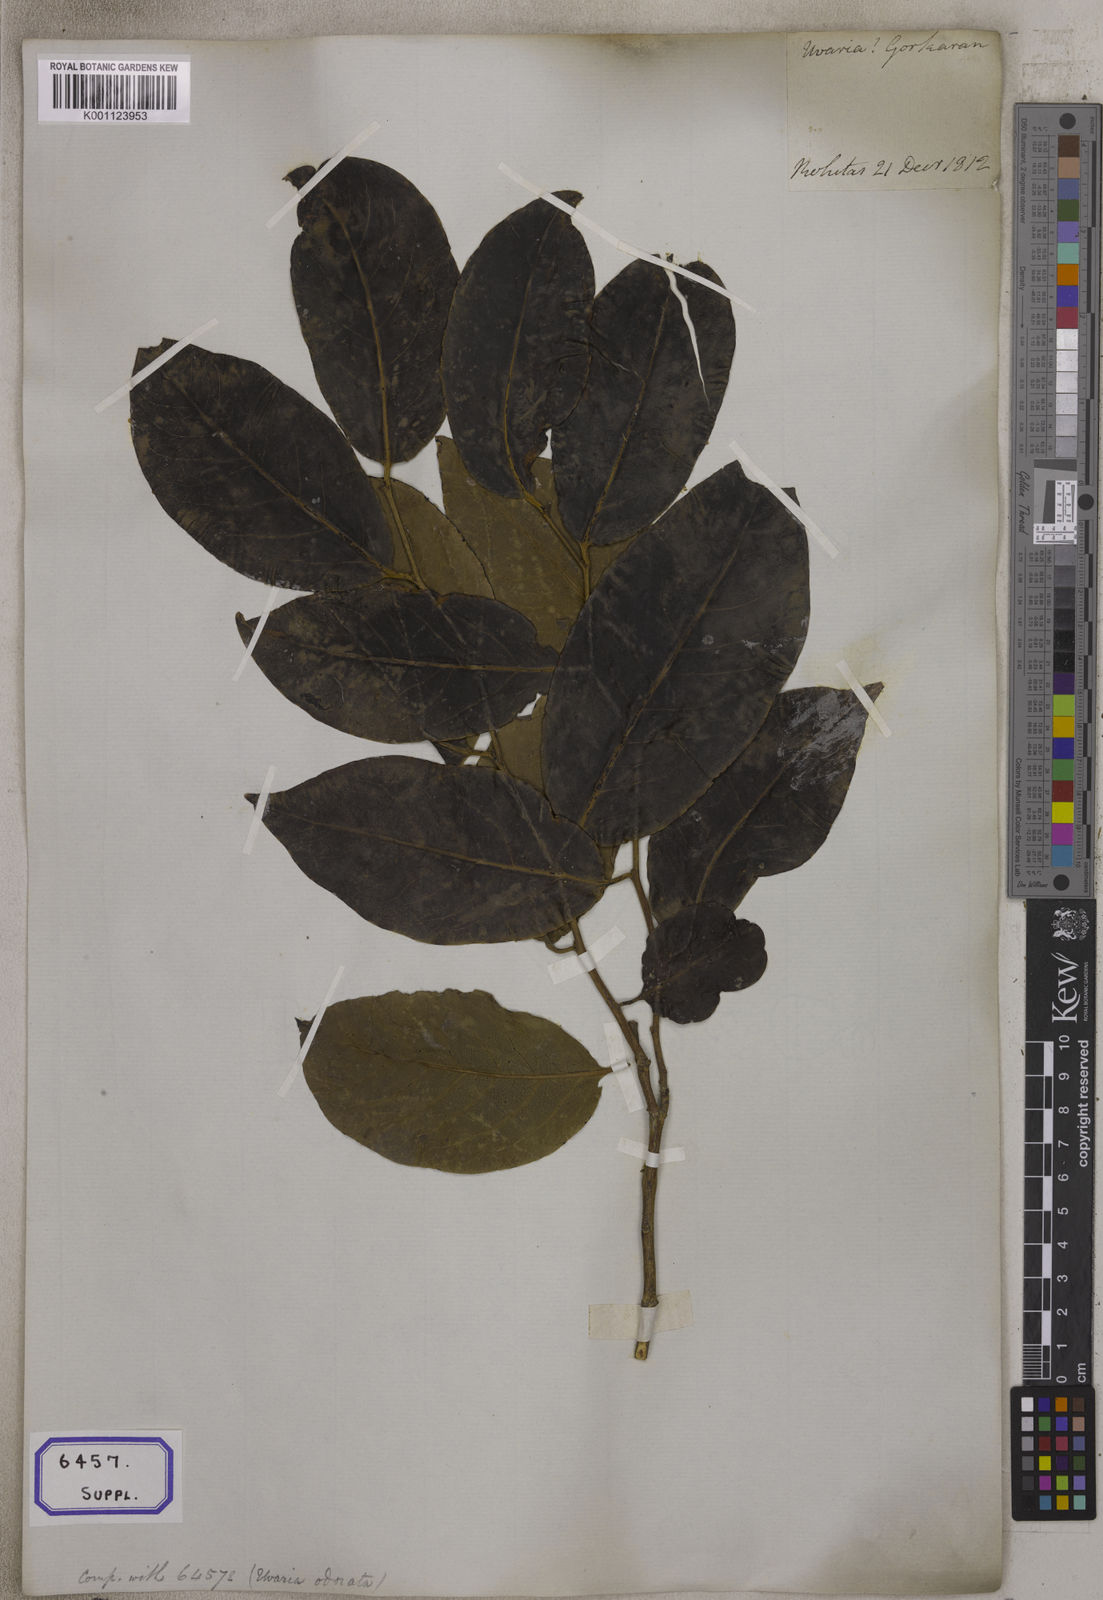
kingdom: Plantae
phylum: Tracheophyta
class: Magnoliopsida
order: Magnoliales
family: Annonaceae
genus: Uvaria
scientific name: Uvaria
